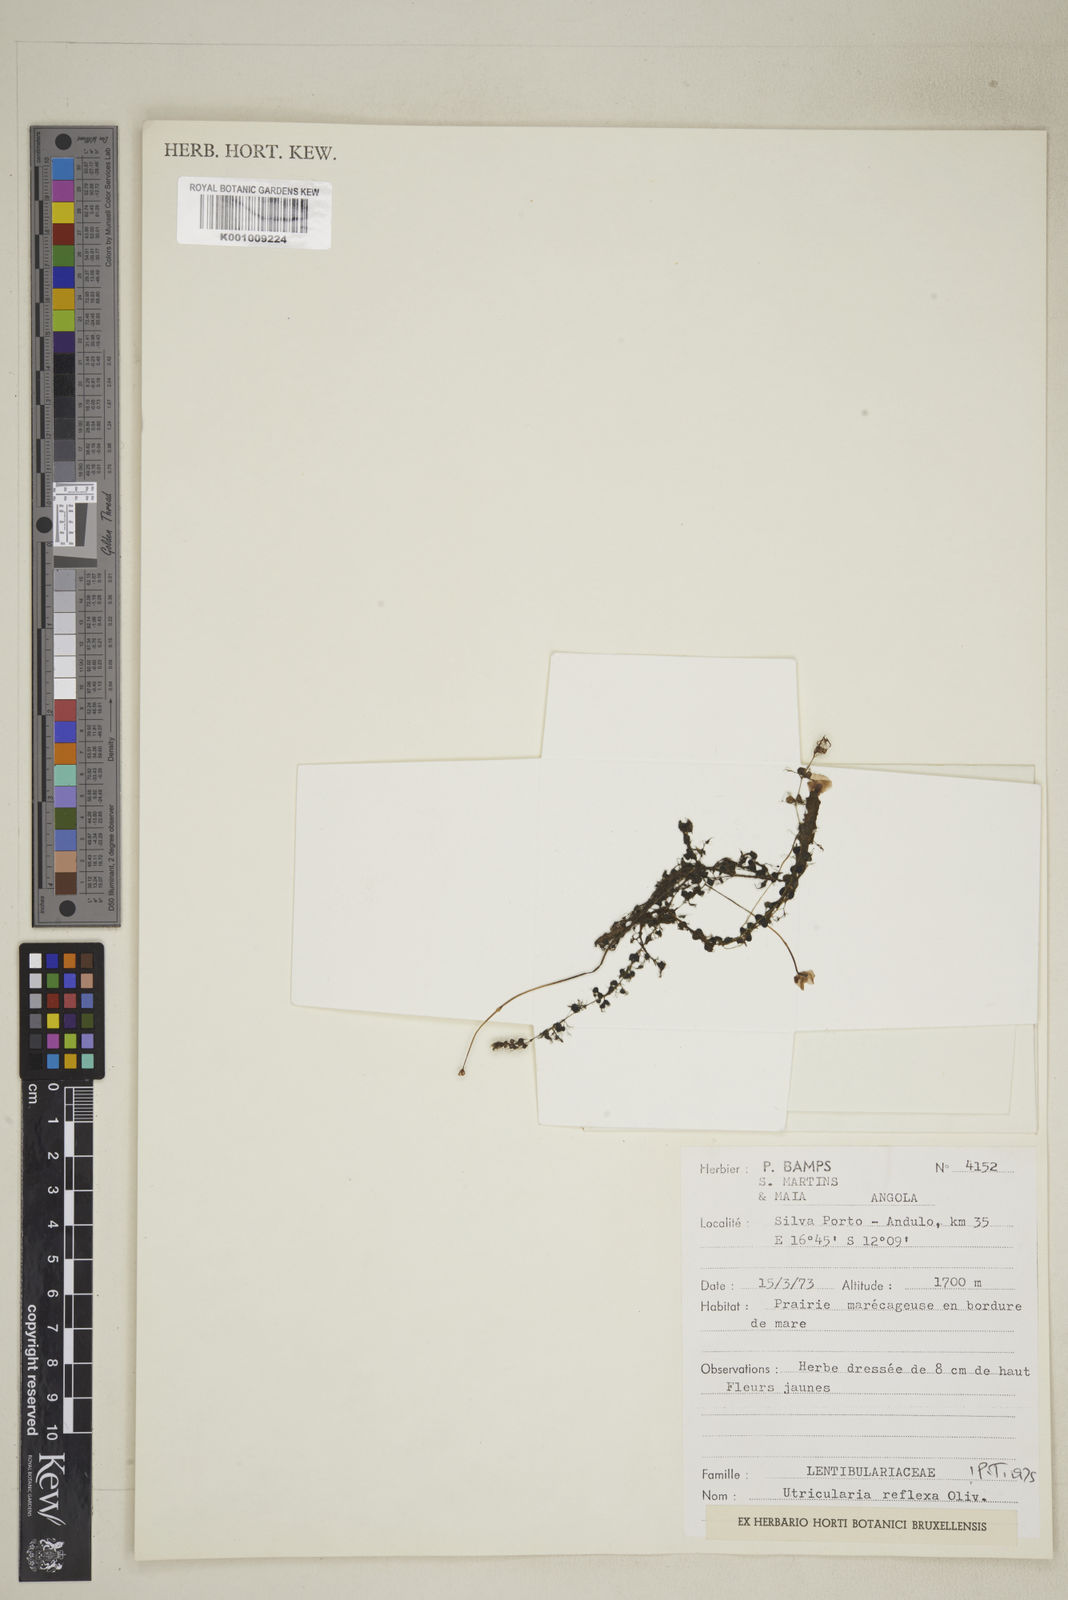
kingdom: Plantae
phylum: Tracheophyta
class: Magnoliopsida
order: Lamiales
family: Lentibulariaceae
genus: Utricularia
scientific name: Utricularia reflexa
